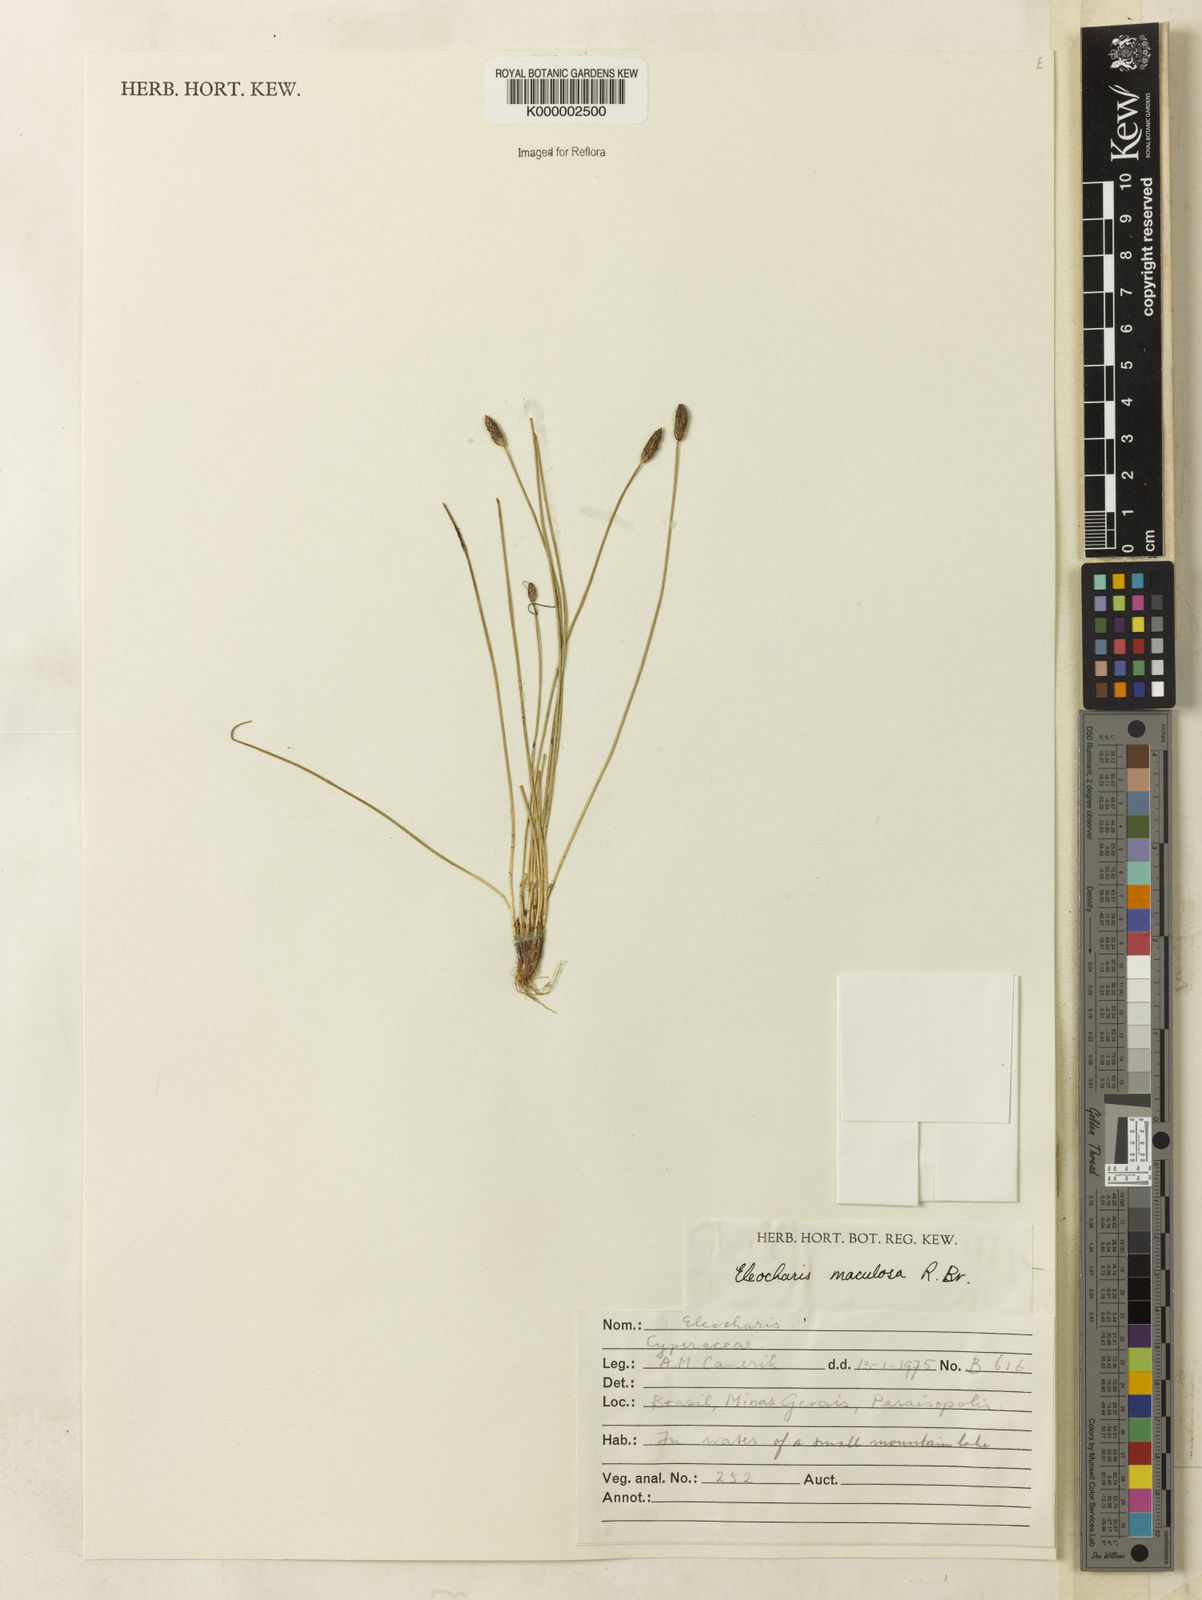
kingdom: Plantae
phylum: Tracheophyta
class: Liliopsida
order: Poales
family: Cyperaceae
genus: Eleocharis
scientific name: Eleocharis maculosa
